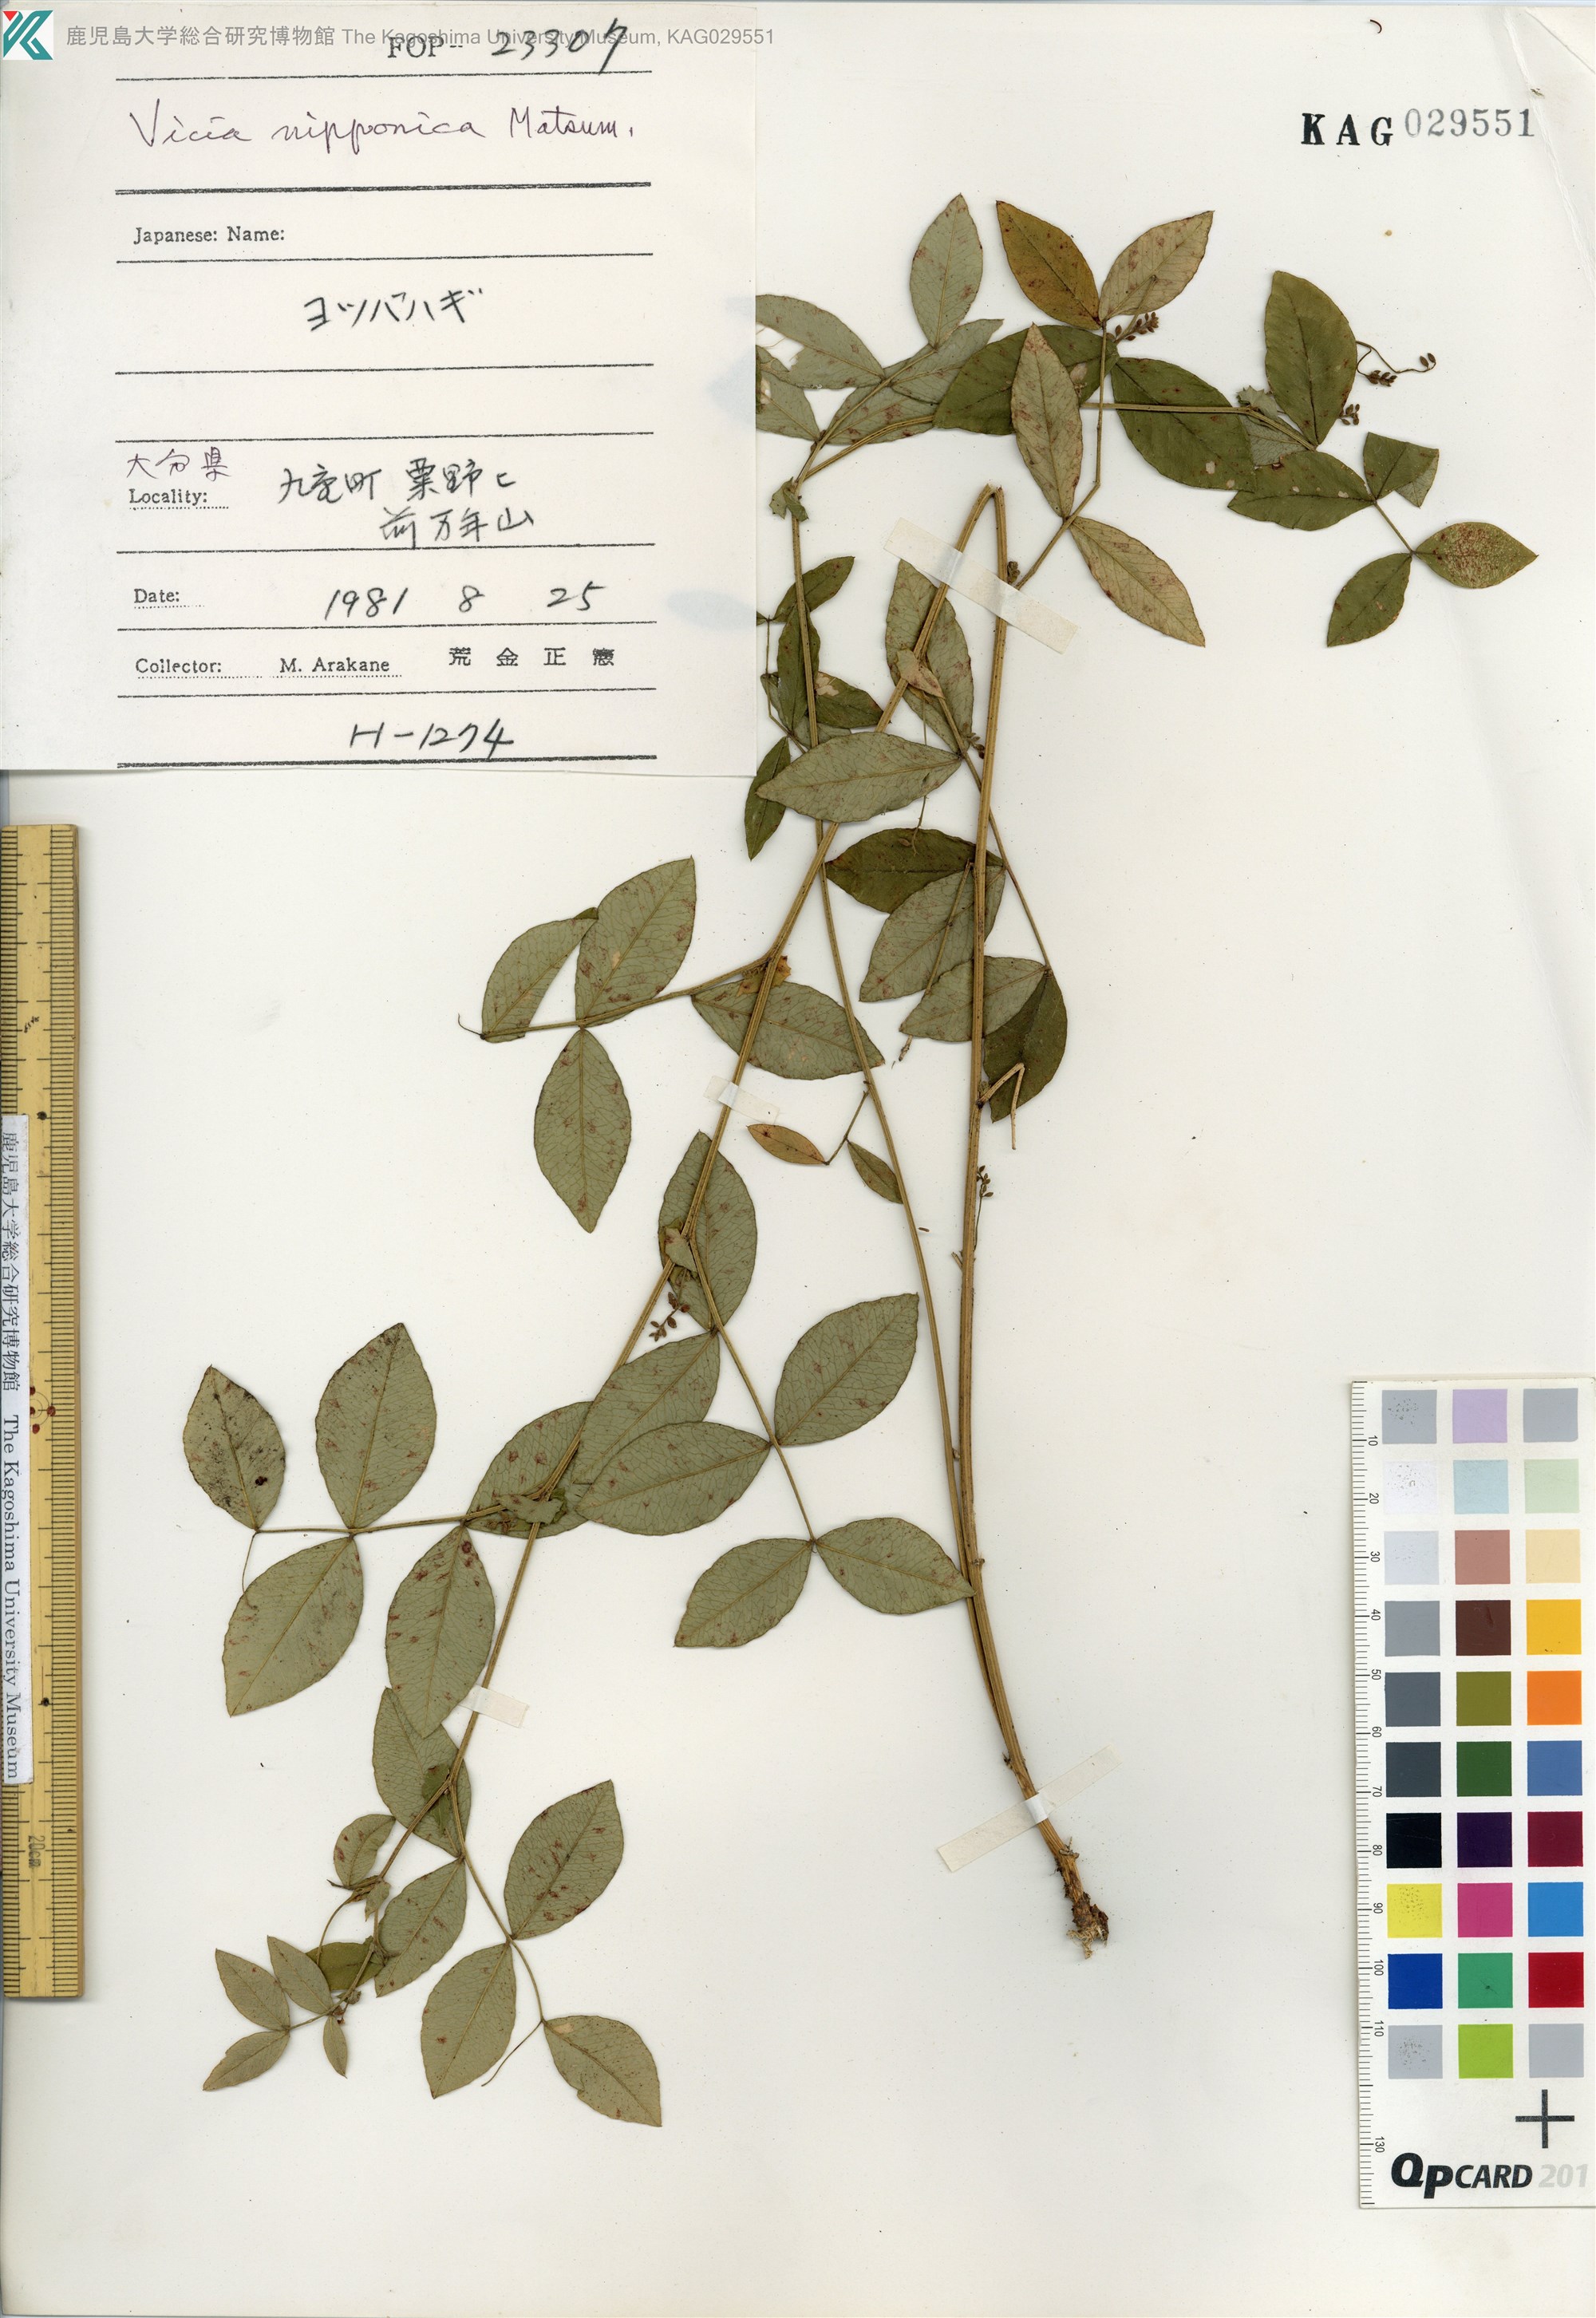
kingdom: Plantae
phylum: Tracheophyta
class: Magnoliopsida
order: Fabales
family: Fabaceae
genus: Vicia
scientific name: Vicia nipponica
